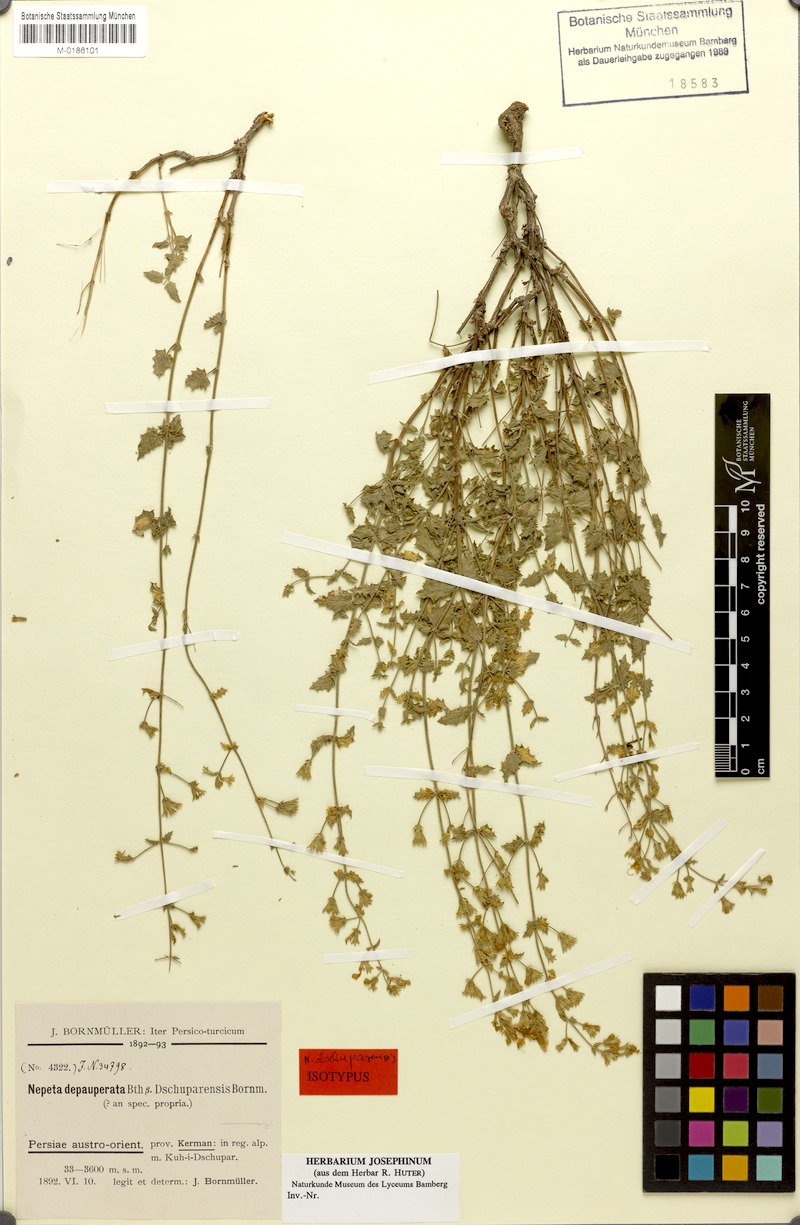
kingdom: Plantae
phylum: Tracheophyta
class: Magnoliopsida
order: Lamiales
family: Lamiaceae
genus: Nepeta
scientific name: Nepeta dschuparensis
